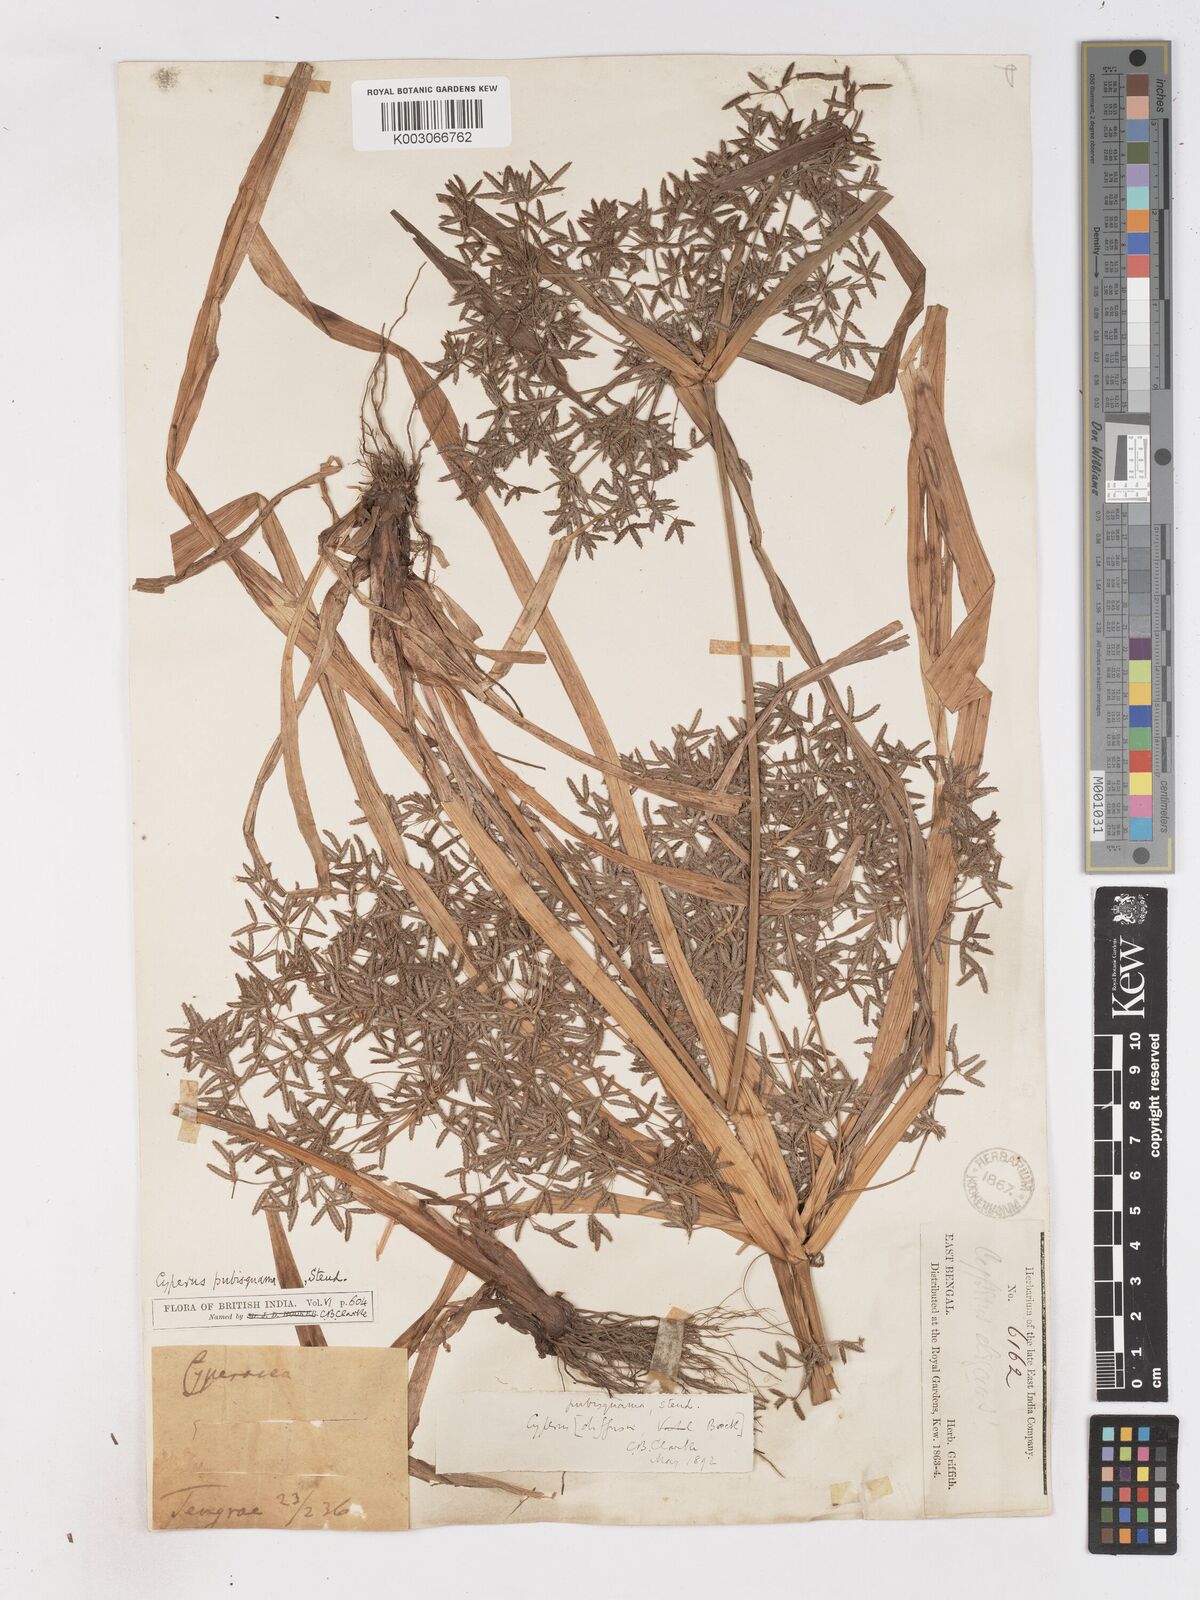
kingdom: Plantae
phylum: Tracheophyta
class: Liliopsida
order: Poales
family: Cyperaceae
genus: Cyperus
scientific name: Cyperus diffusus
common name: Dwarf umbrella grass
